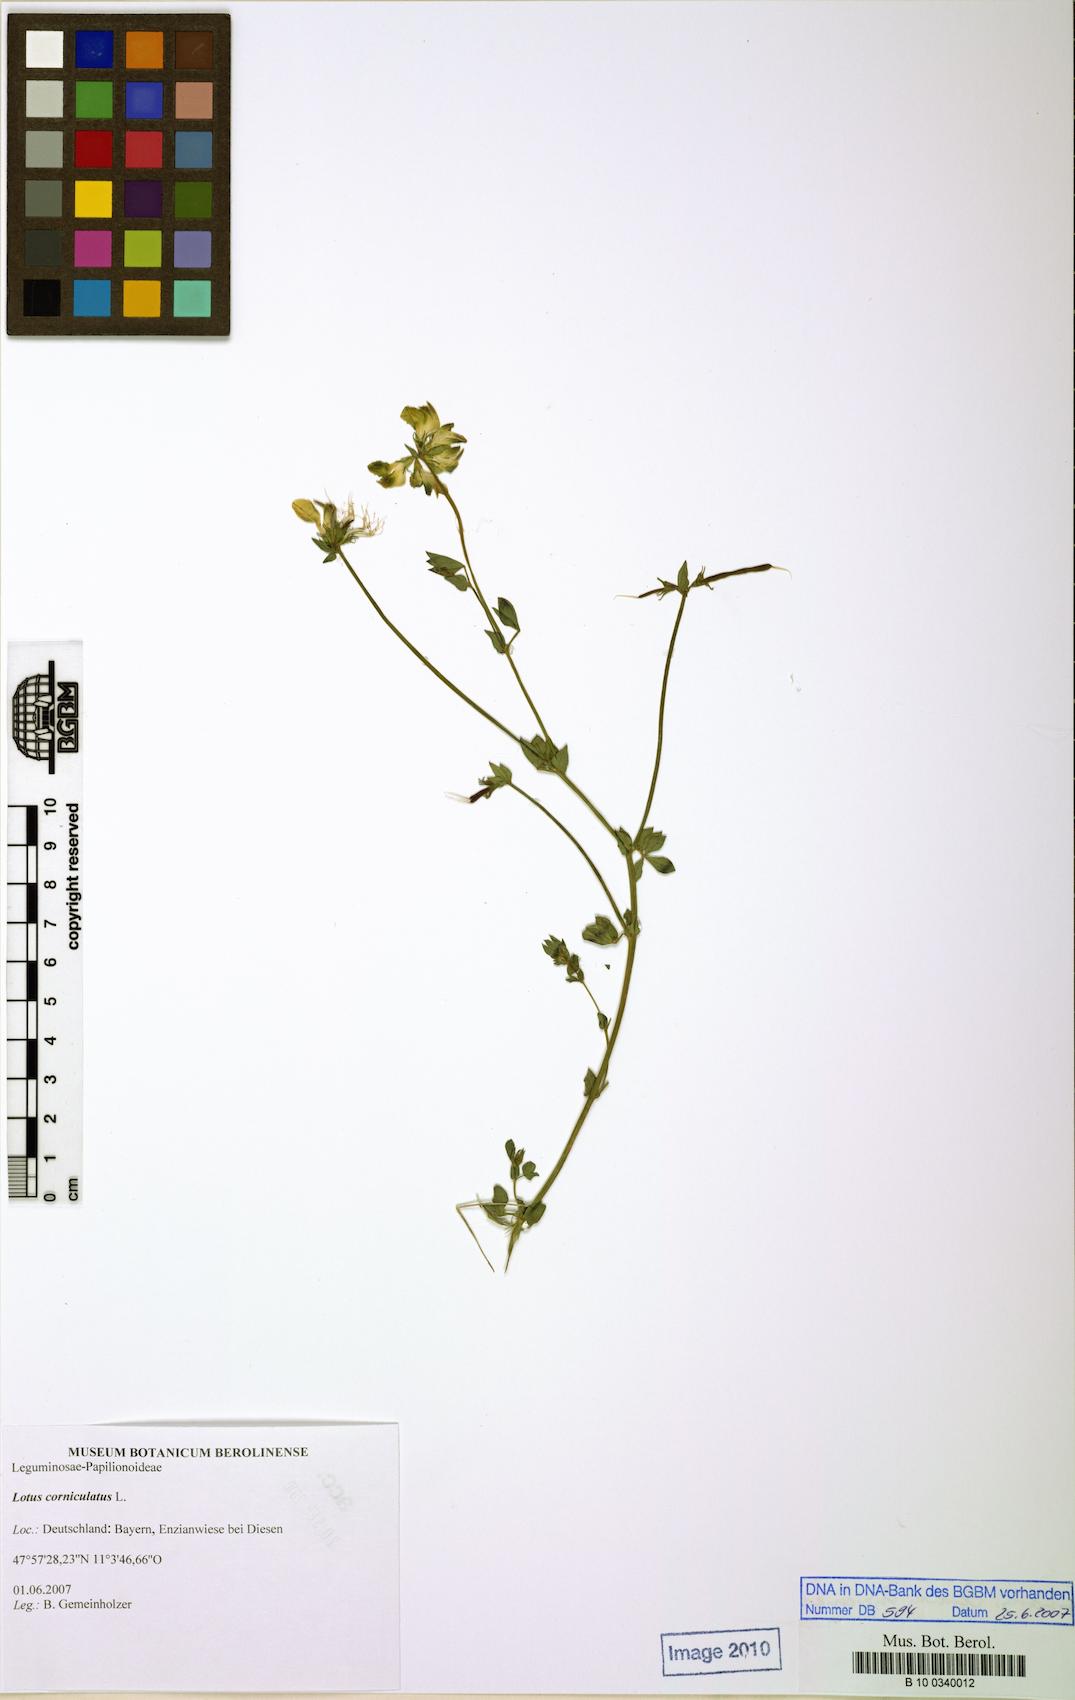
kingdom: Plantae
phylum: Tracheophyta
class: Magnoliopsida
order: Fabales
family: Fabaceae
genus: Lotus
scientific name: Lotus corniculatus
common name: Common bird's-foot-trefoil
